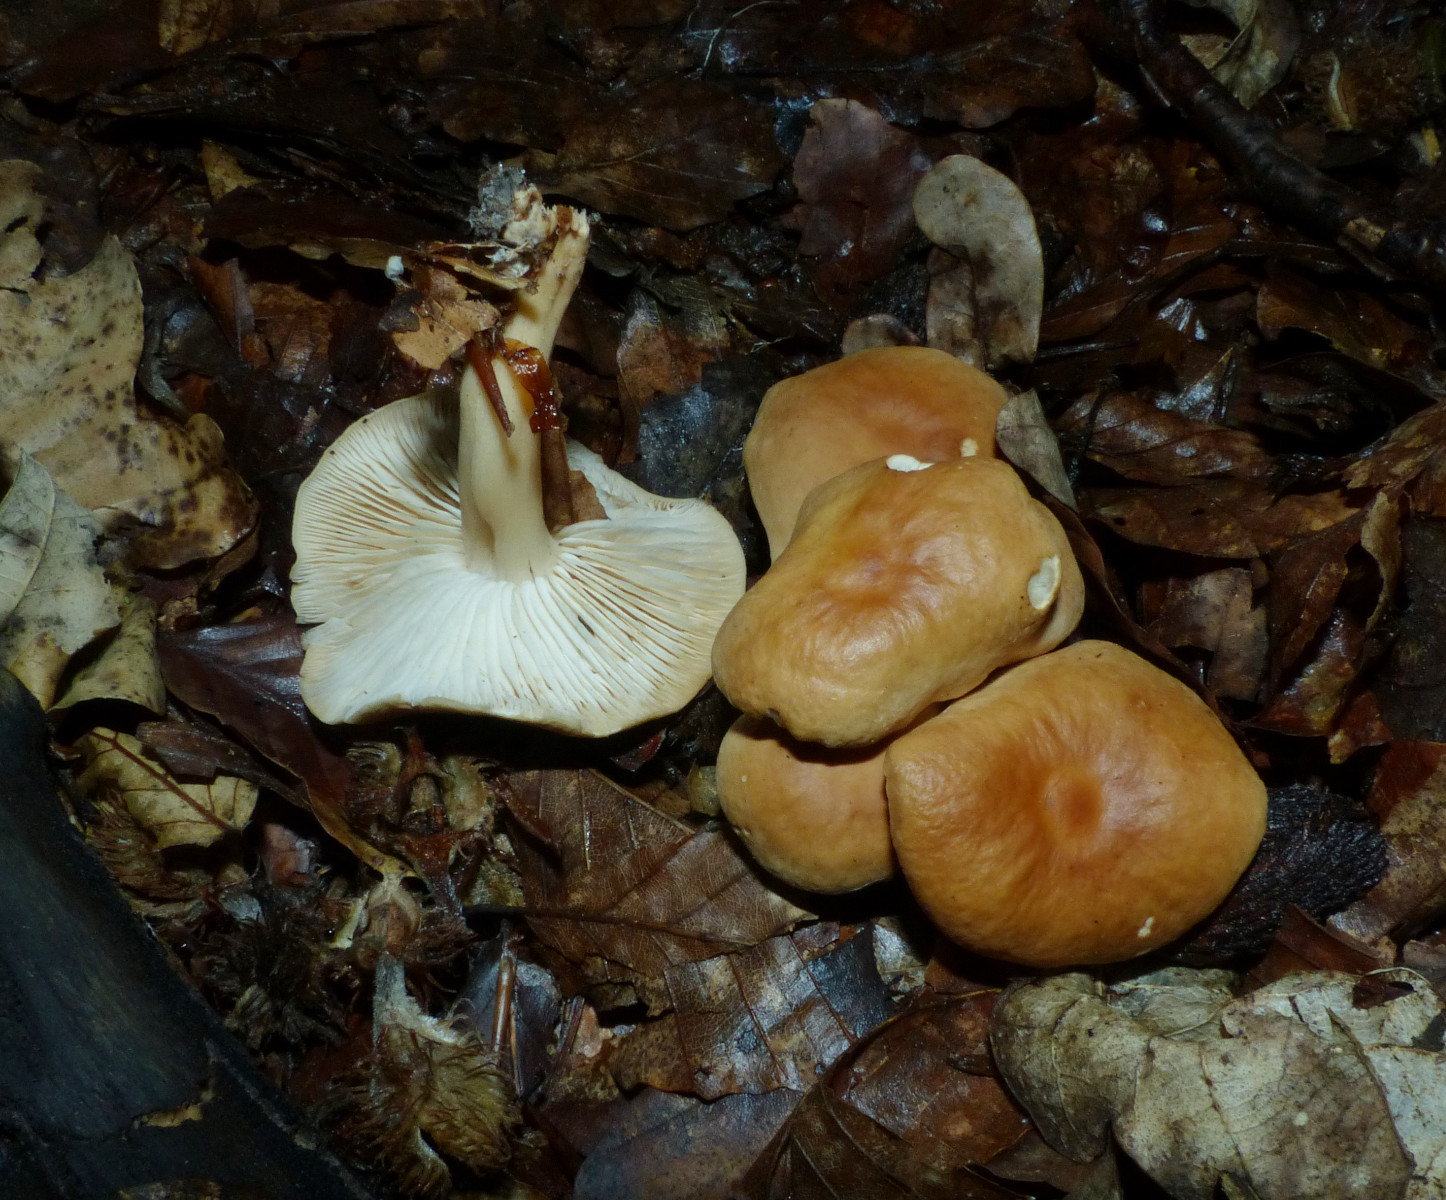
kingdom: Fungi
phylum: Basidiomycota
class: Agaricomycetes
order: Agaricales
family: Omphalotaceae
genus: Gymnopus
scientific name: Gymnopus dryophilus
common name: løv-fladhat
